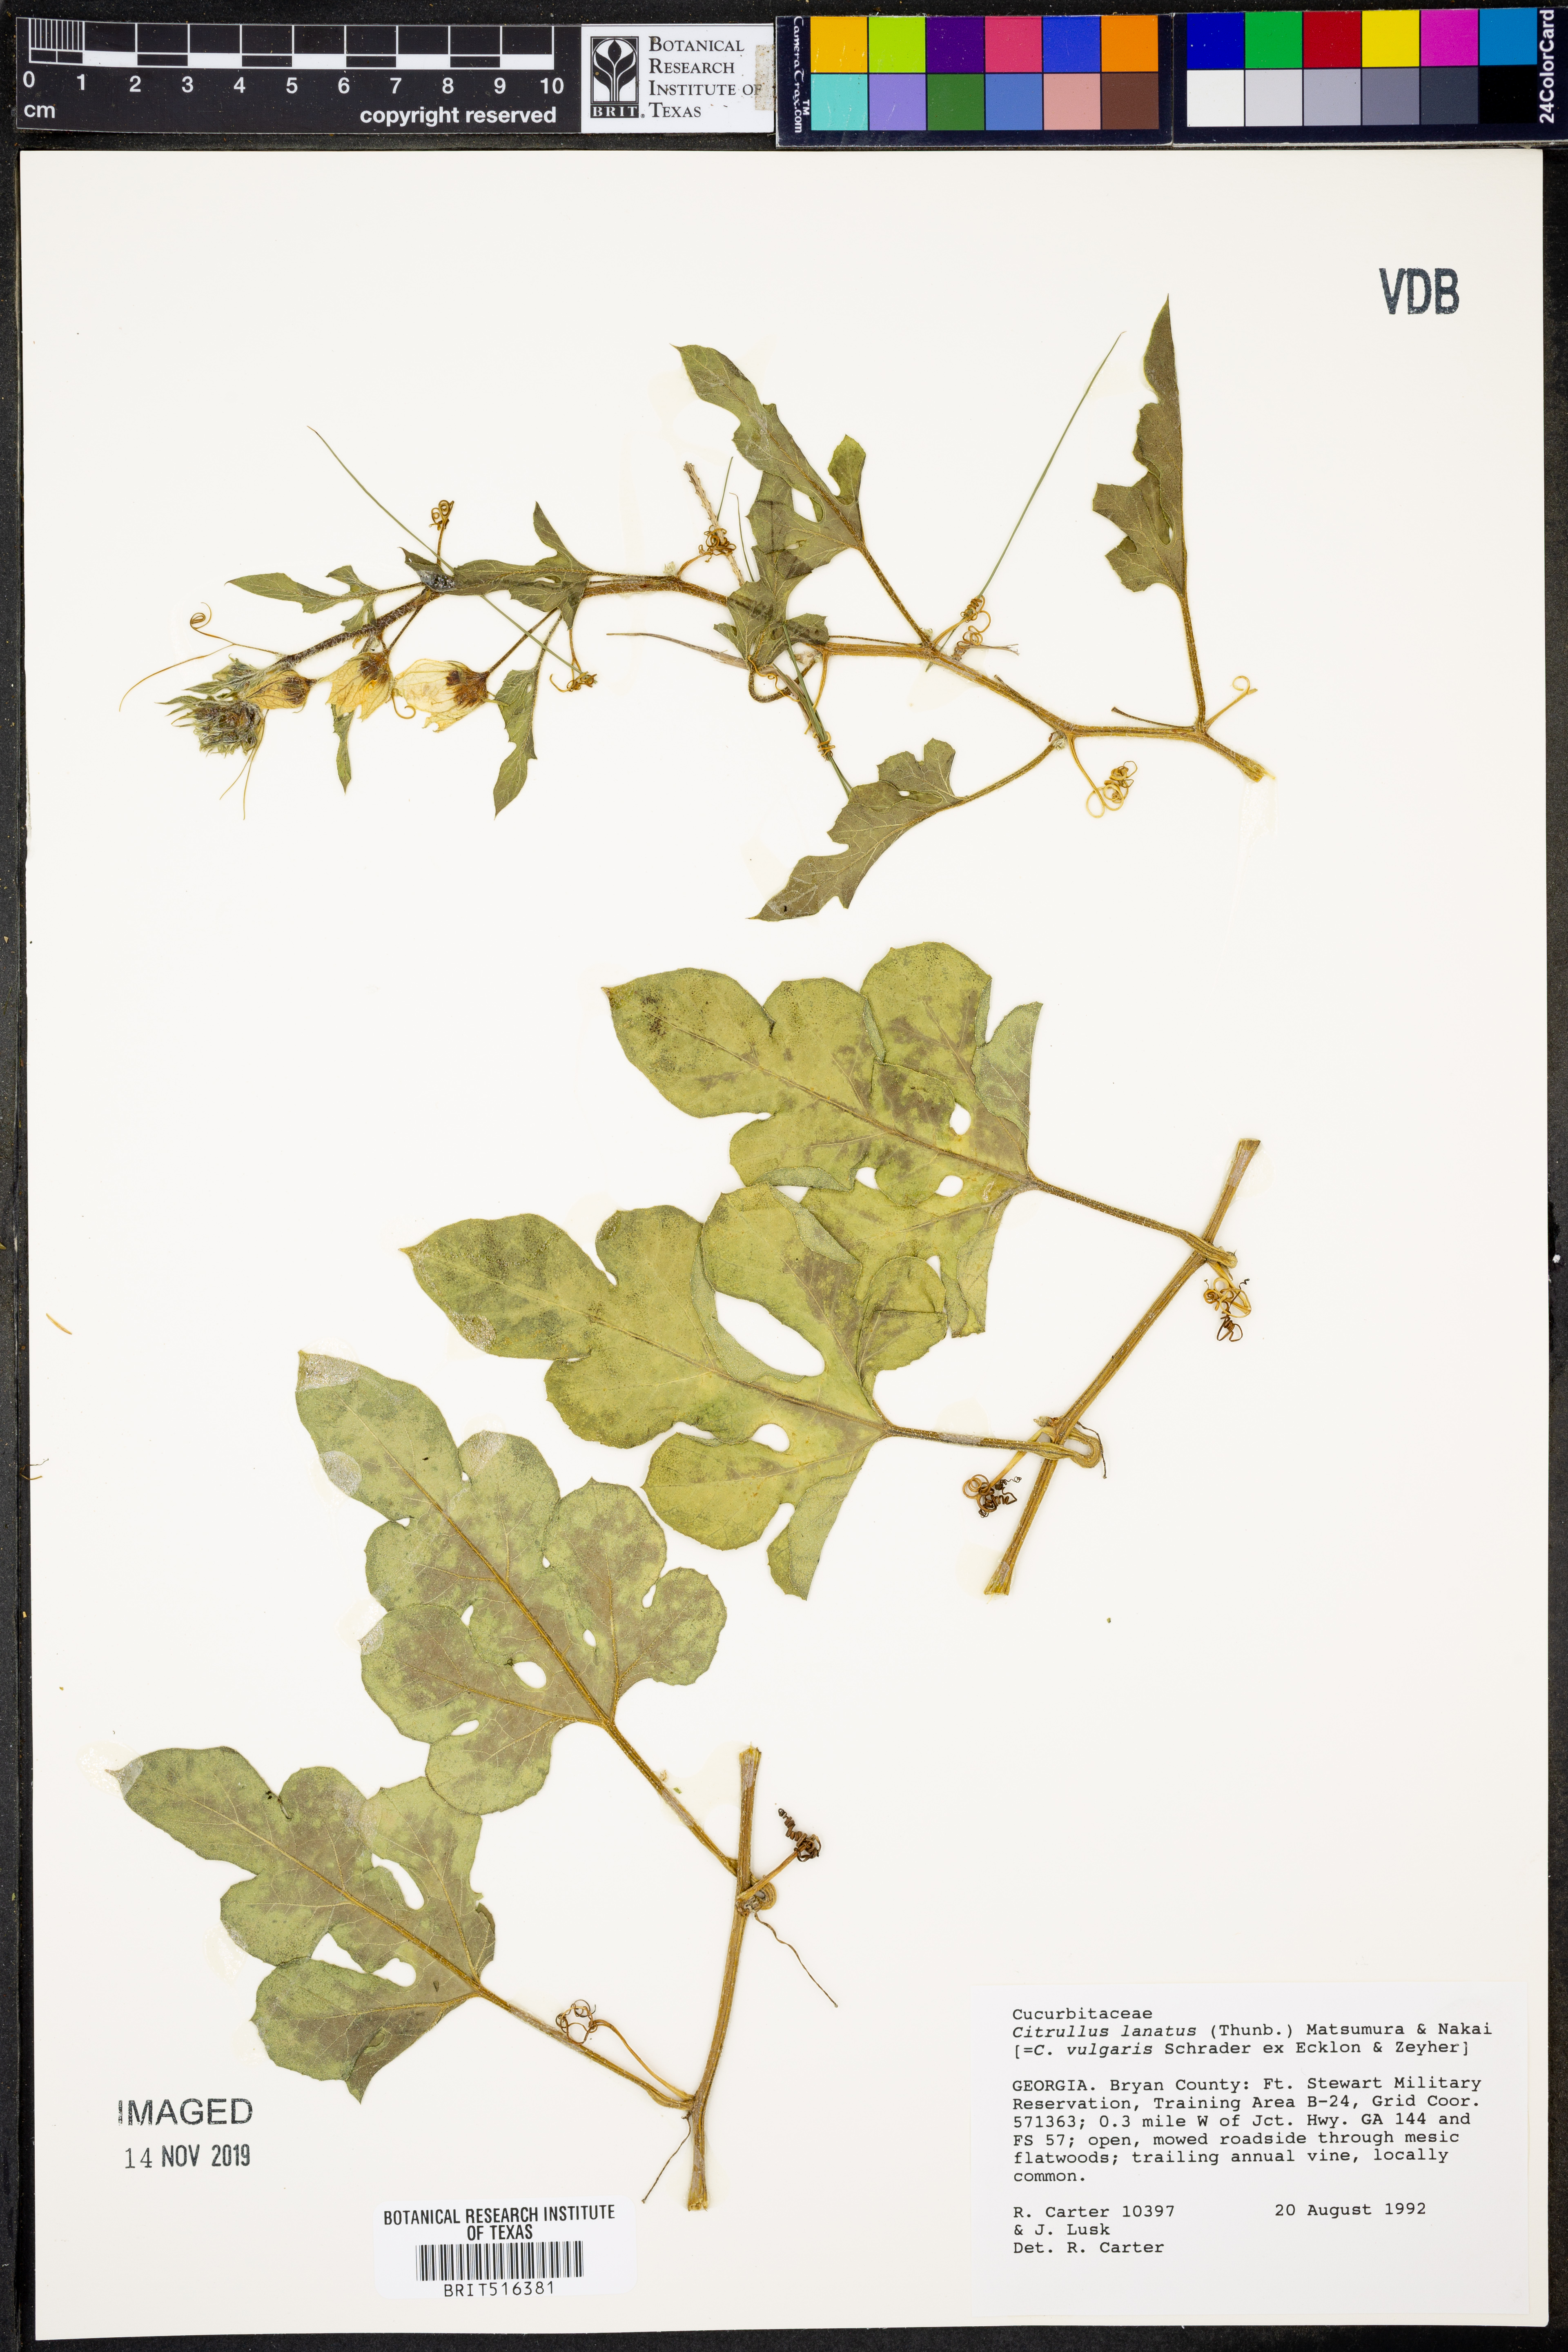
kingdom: Plantae
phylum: Tracheophyta
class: Magnoliopsida
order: Cucurbitales
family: Cucurbitaceae
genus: Citrullus
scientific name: Citrullus lanatus
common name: Watermelon
